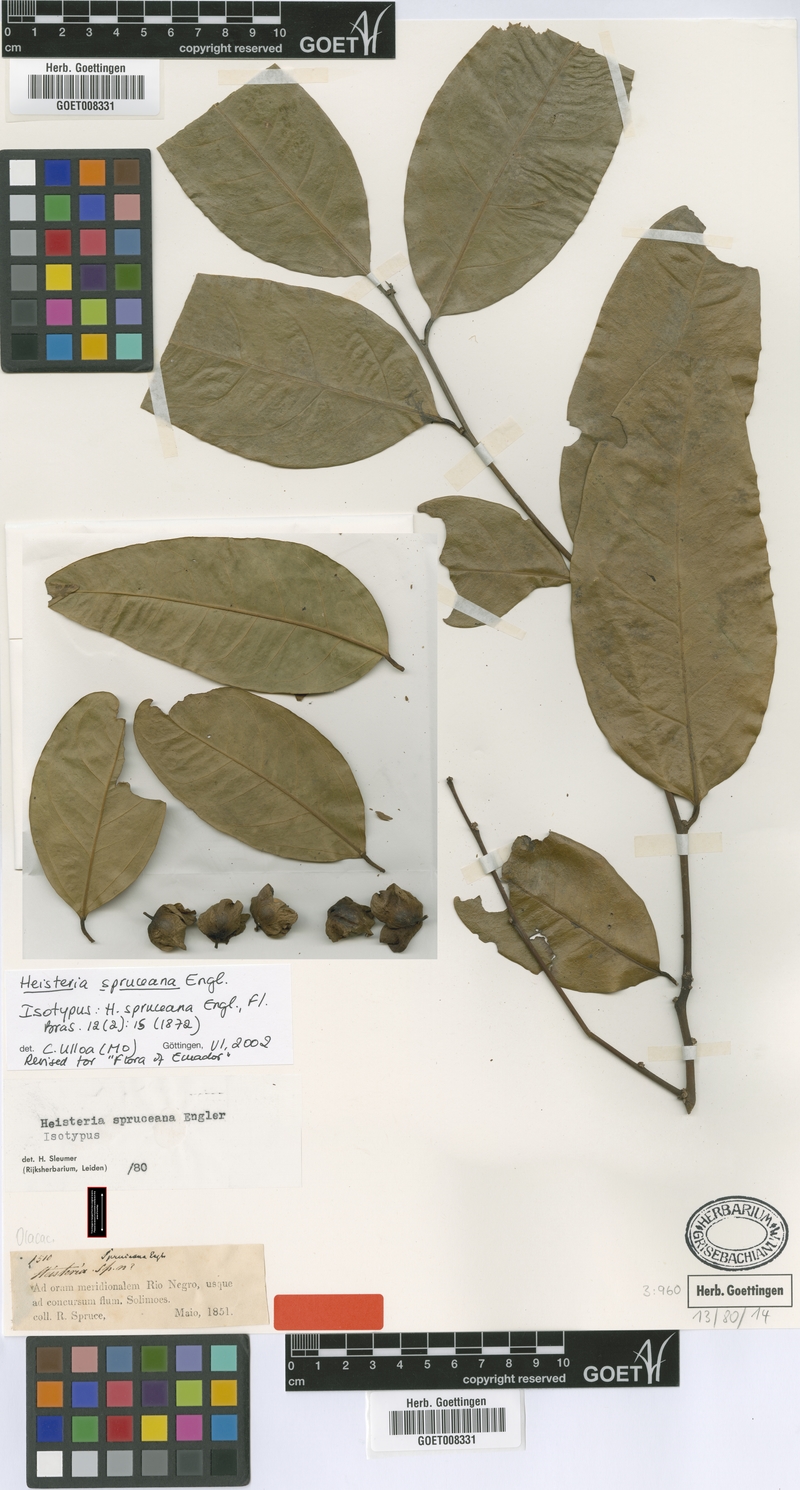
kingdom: Plantae
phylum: Tracheophyta
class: Magnoliopsida
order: Santalales
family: Erythropalaceae
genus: Heisteria
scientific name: Heisteria spruceana
